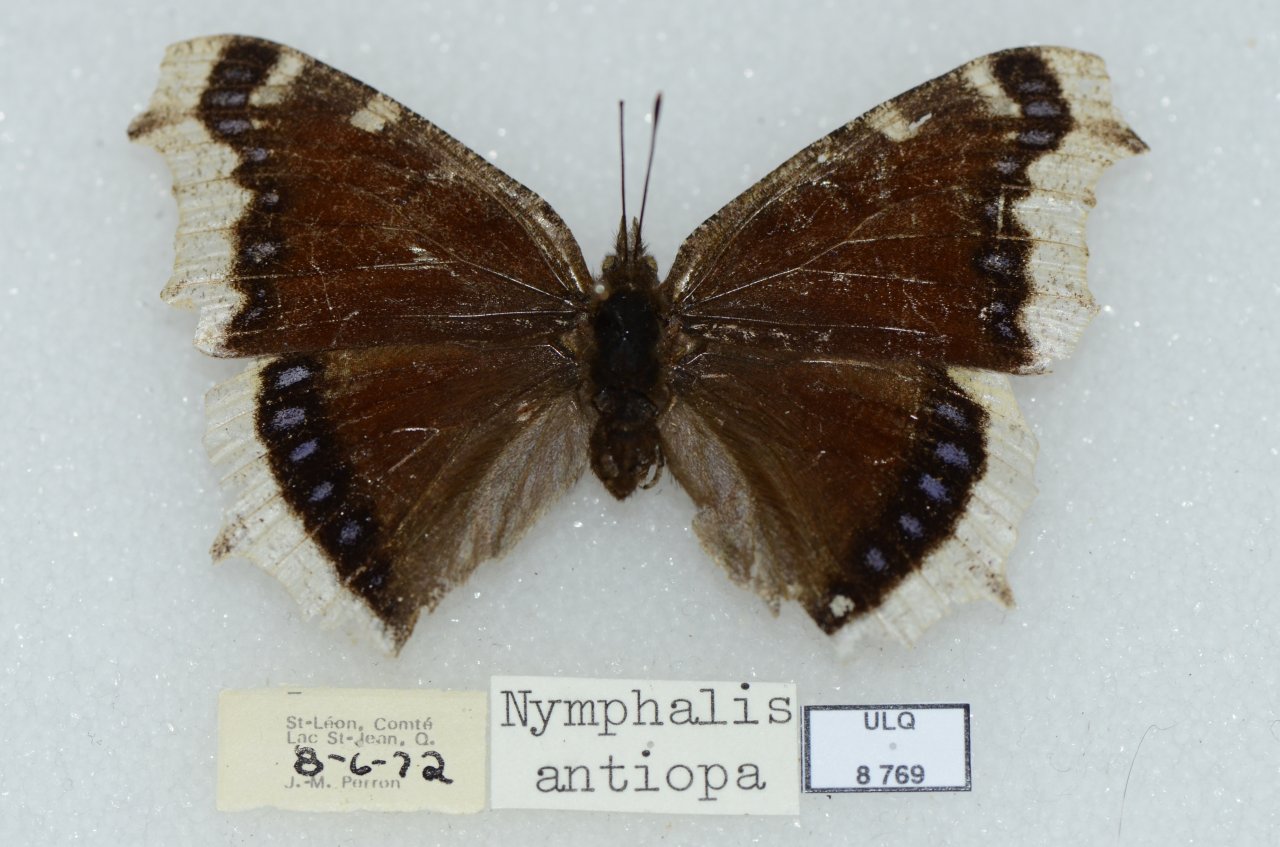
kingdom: Animalia
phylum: Arthropoda
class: Insecta
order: Lepidoptera
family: Nymphalidae
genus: Nymphalis
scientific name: Nymphalis antiopa
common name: Mourning Cloak
